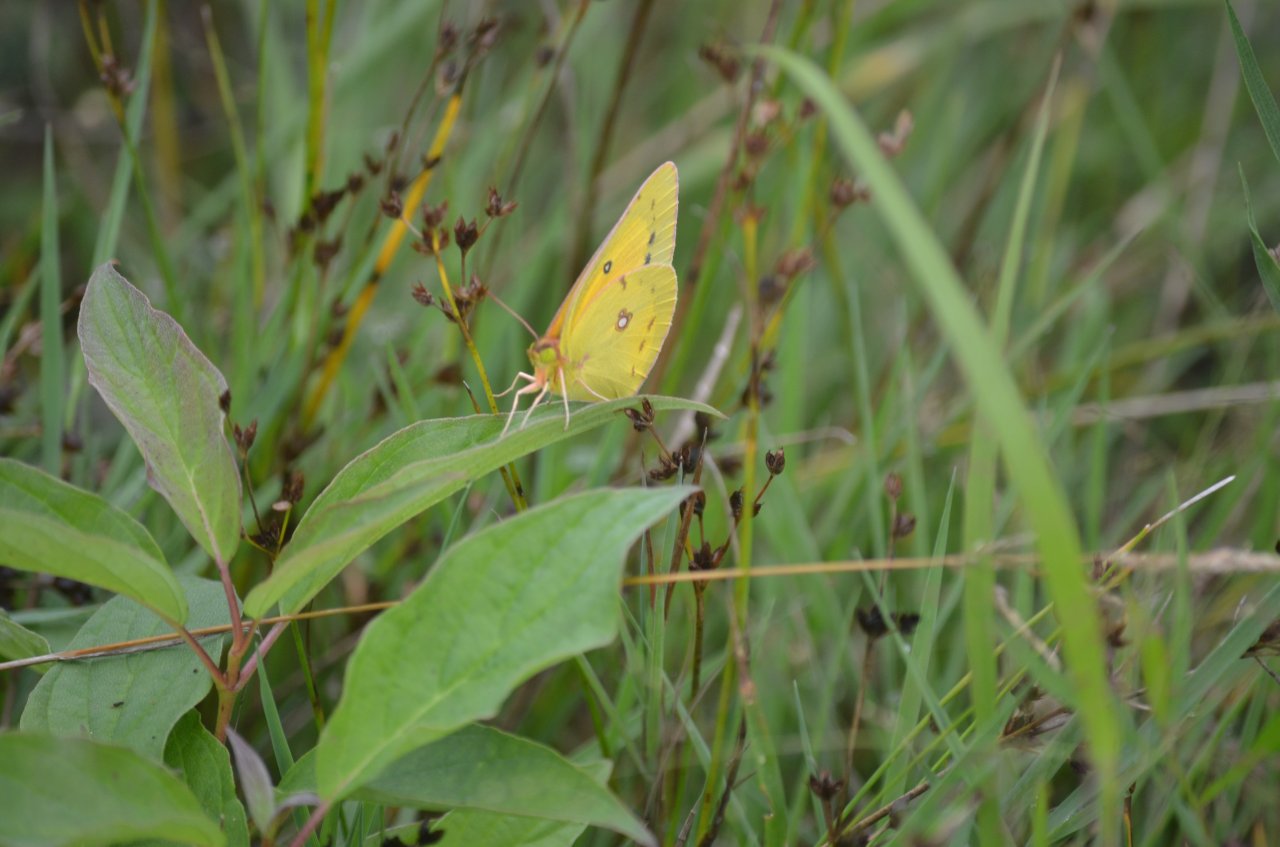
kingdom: Animalia
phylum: Arthropoda
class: Insecta
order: Lepidoptera
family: Pieridae
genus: Colias
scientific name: Colias eurytheme
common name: Orange Sulphur
